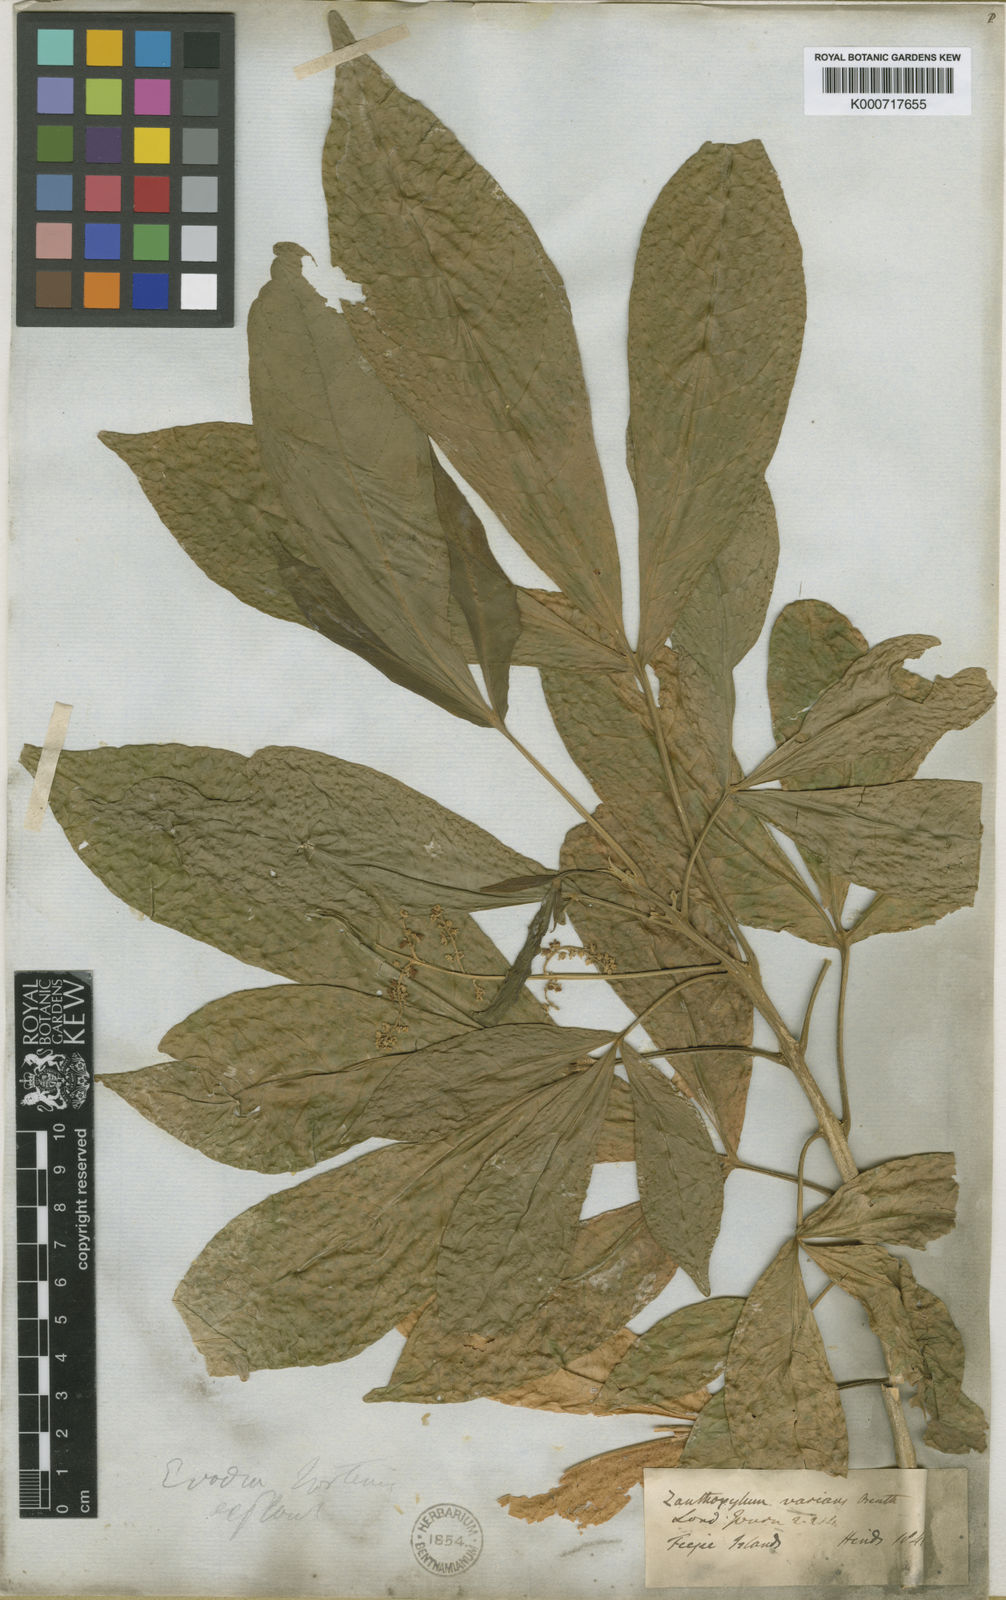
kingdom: Plantae
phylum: Tracheophyta
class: Magnoliopsida
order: Sapindales
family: Rutaceae
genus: Euodia
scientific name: Euodia hortensis
